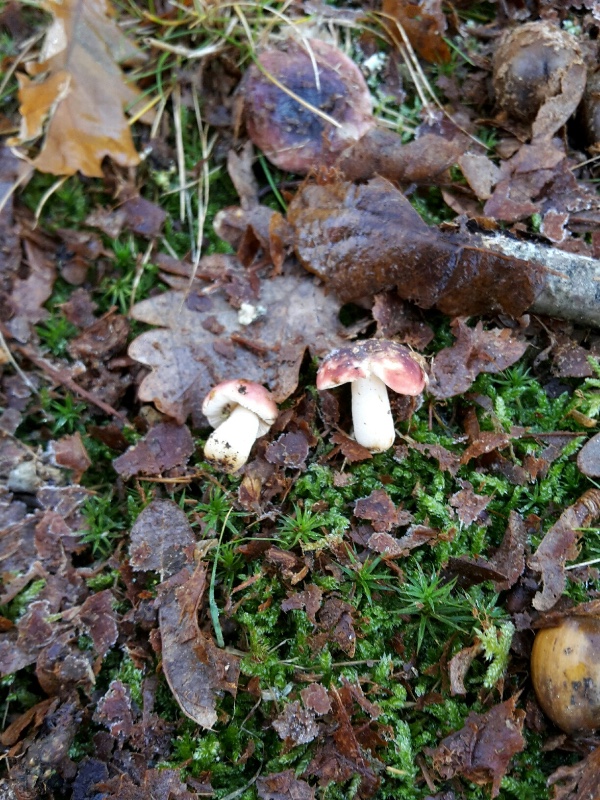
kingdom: Fungi
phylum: Basidiomycota
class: Agaricomycetes
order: Russulales
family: Russulaceae
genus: Russula
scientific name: Russula fragilis
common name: Fragile brittlegill
